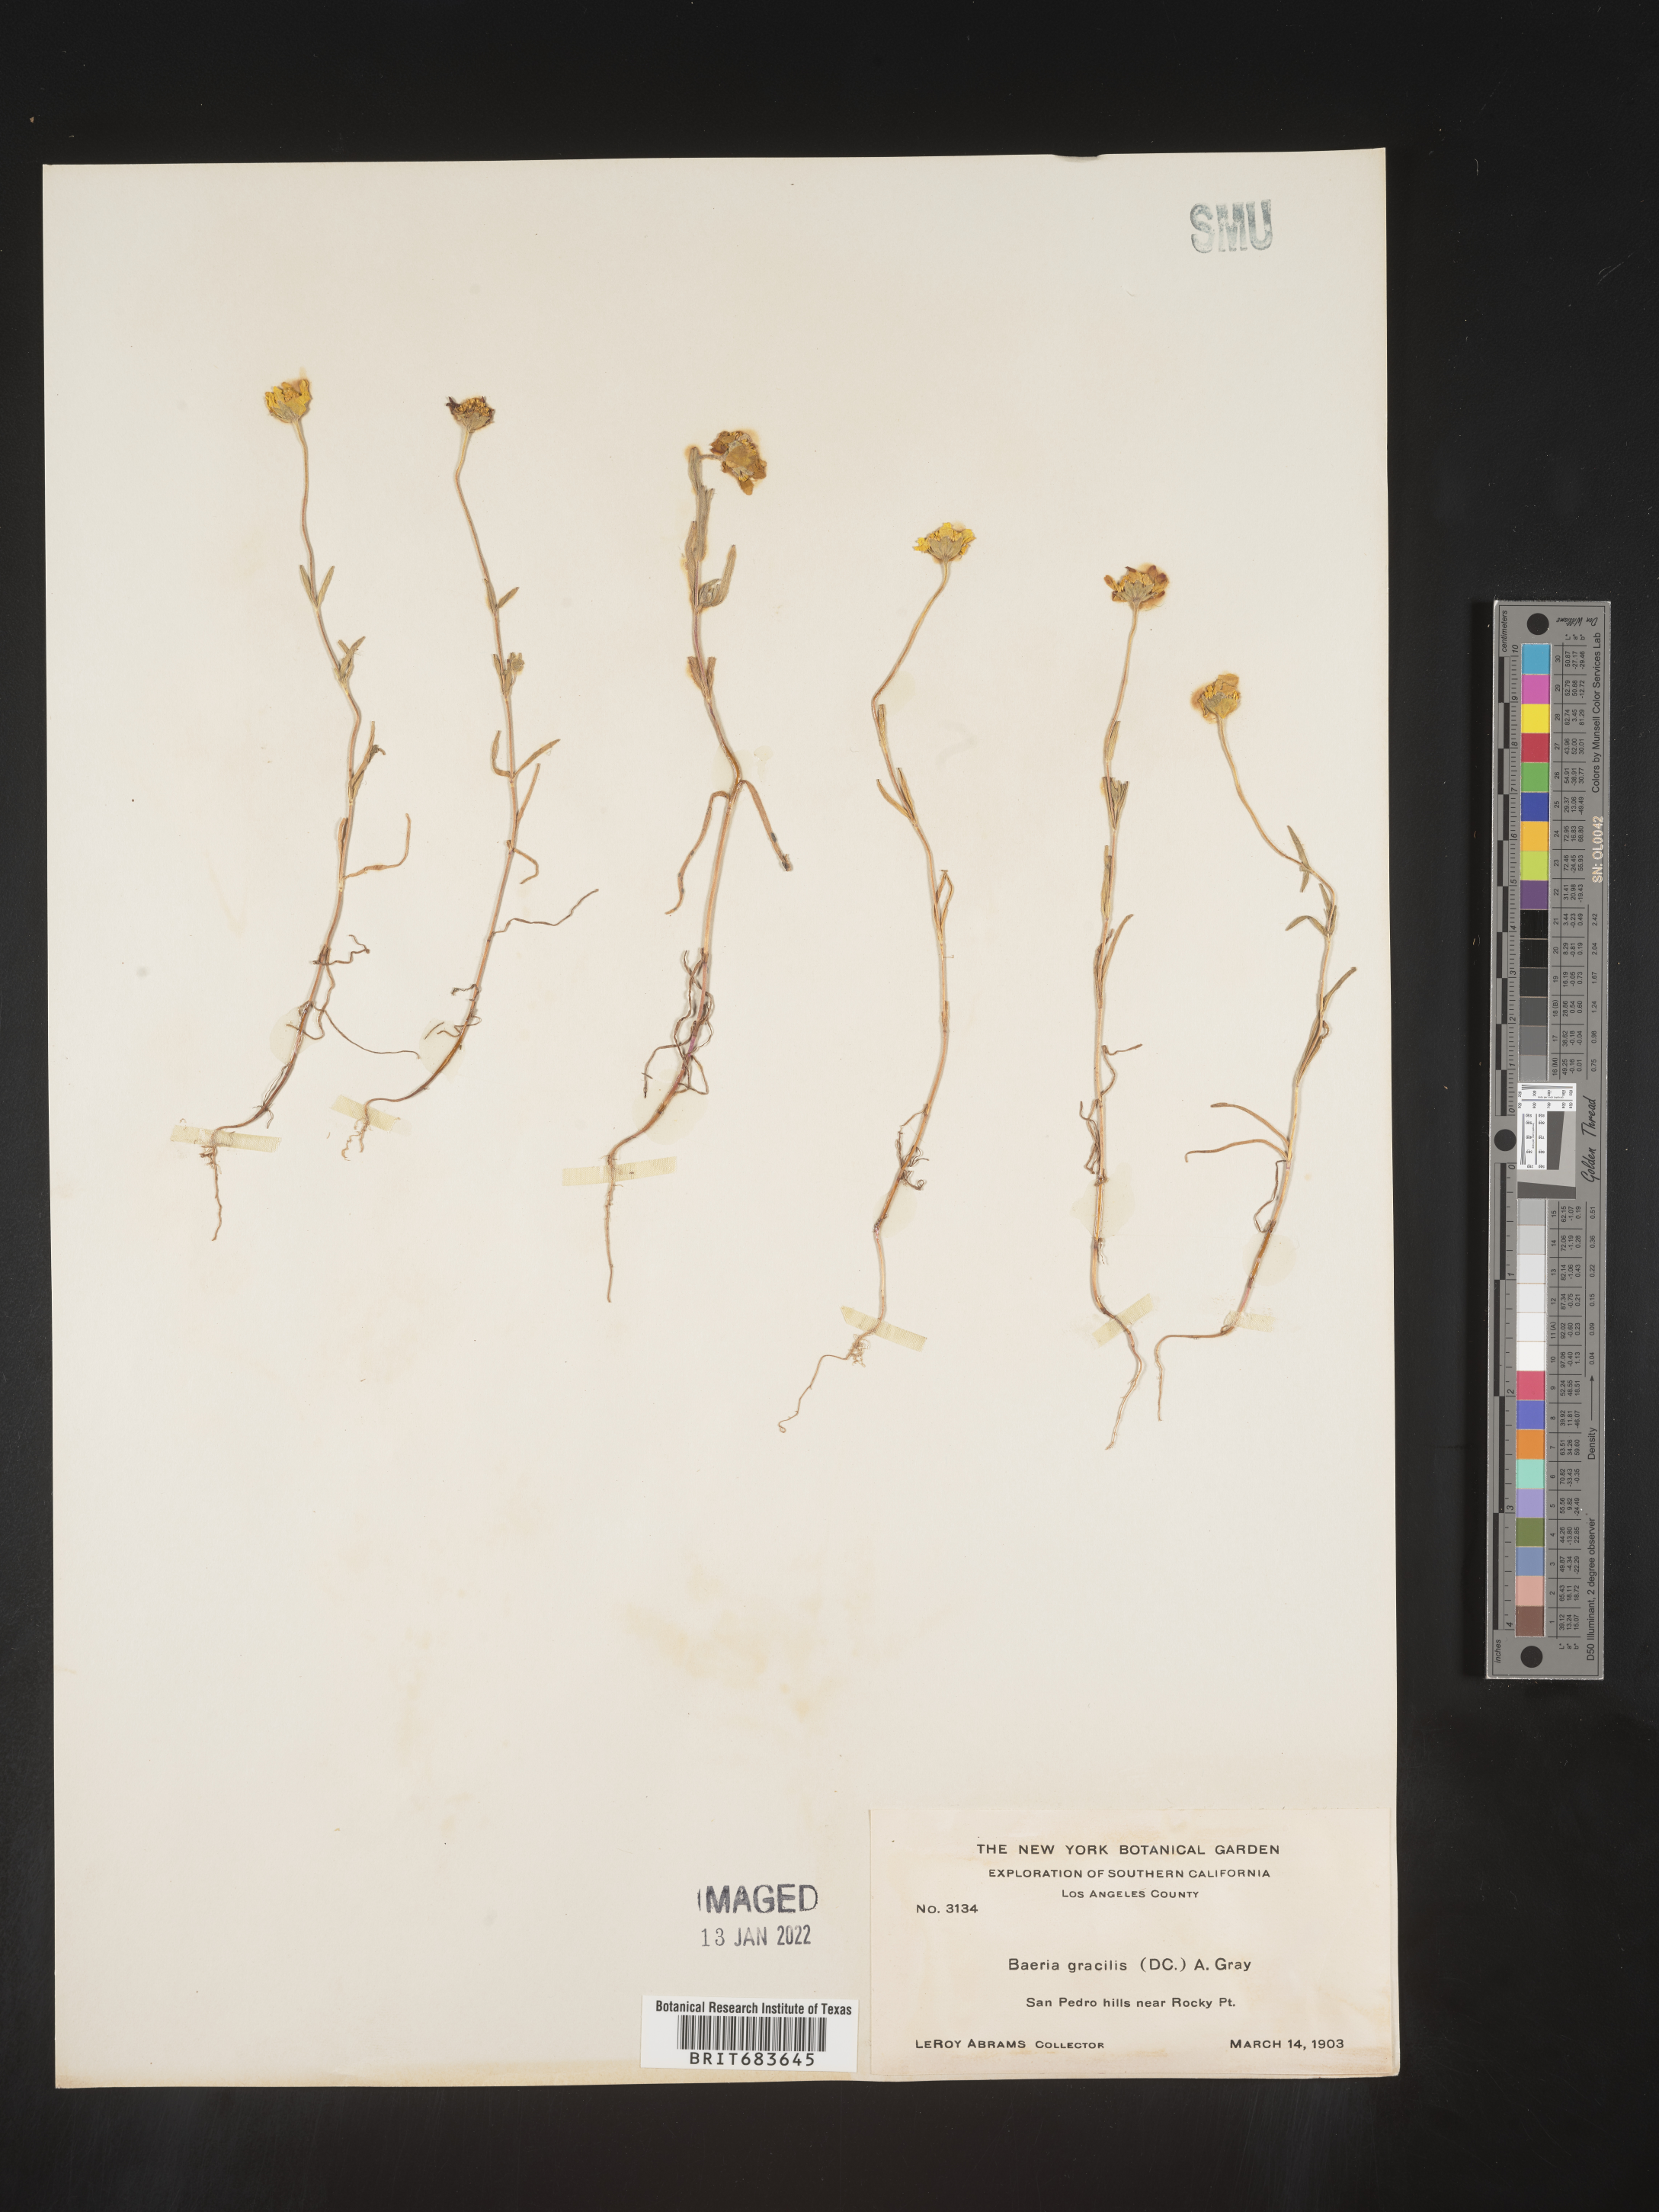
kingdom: Plantae
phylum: Tracheophyta
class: Magnoliopsida
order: Asterales
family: Asteraceae
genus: Lasthenia
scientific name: Lasthenia
